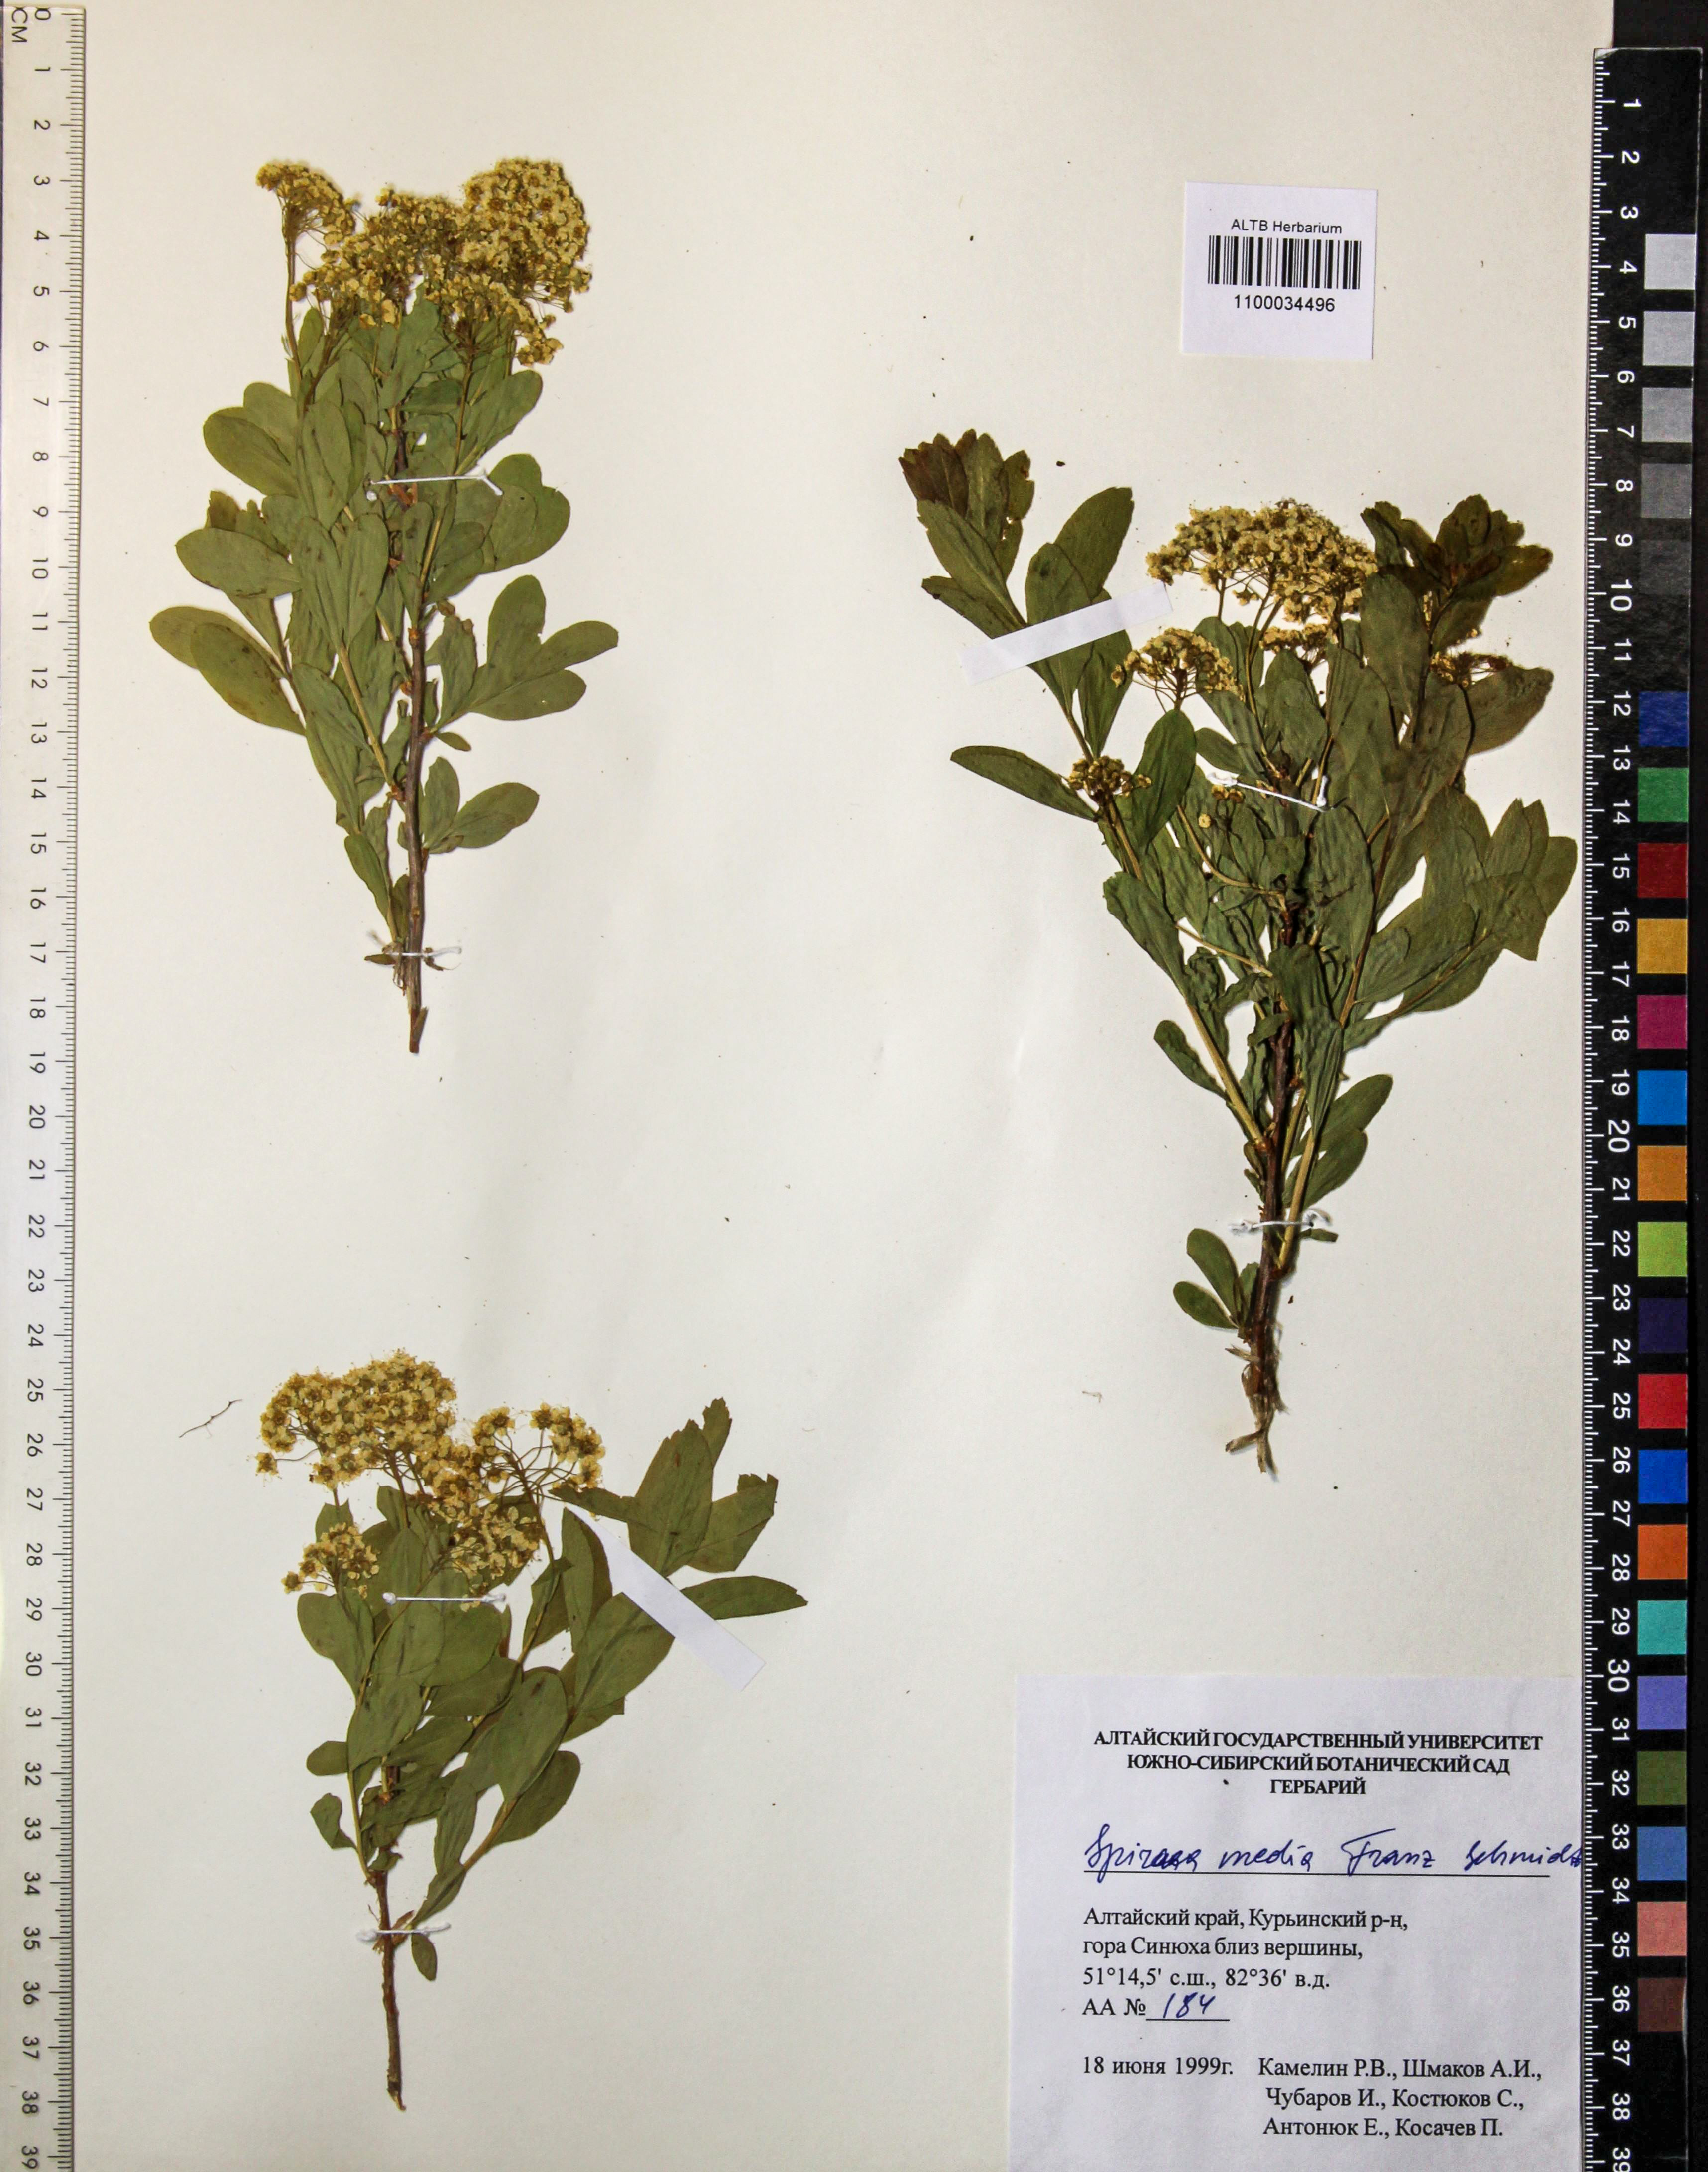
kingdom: Plantae
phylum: Tracheophyta
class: Magnoliopsida
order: Rosales
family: Rosaceae
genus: Spiraea
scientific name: Spiraea media
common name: Russian spiraea
